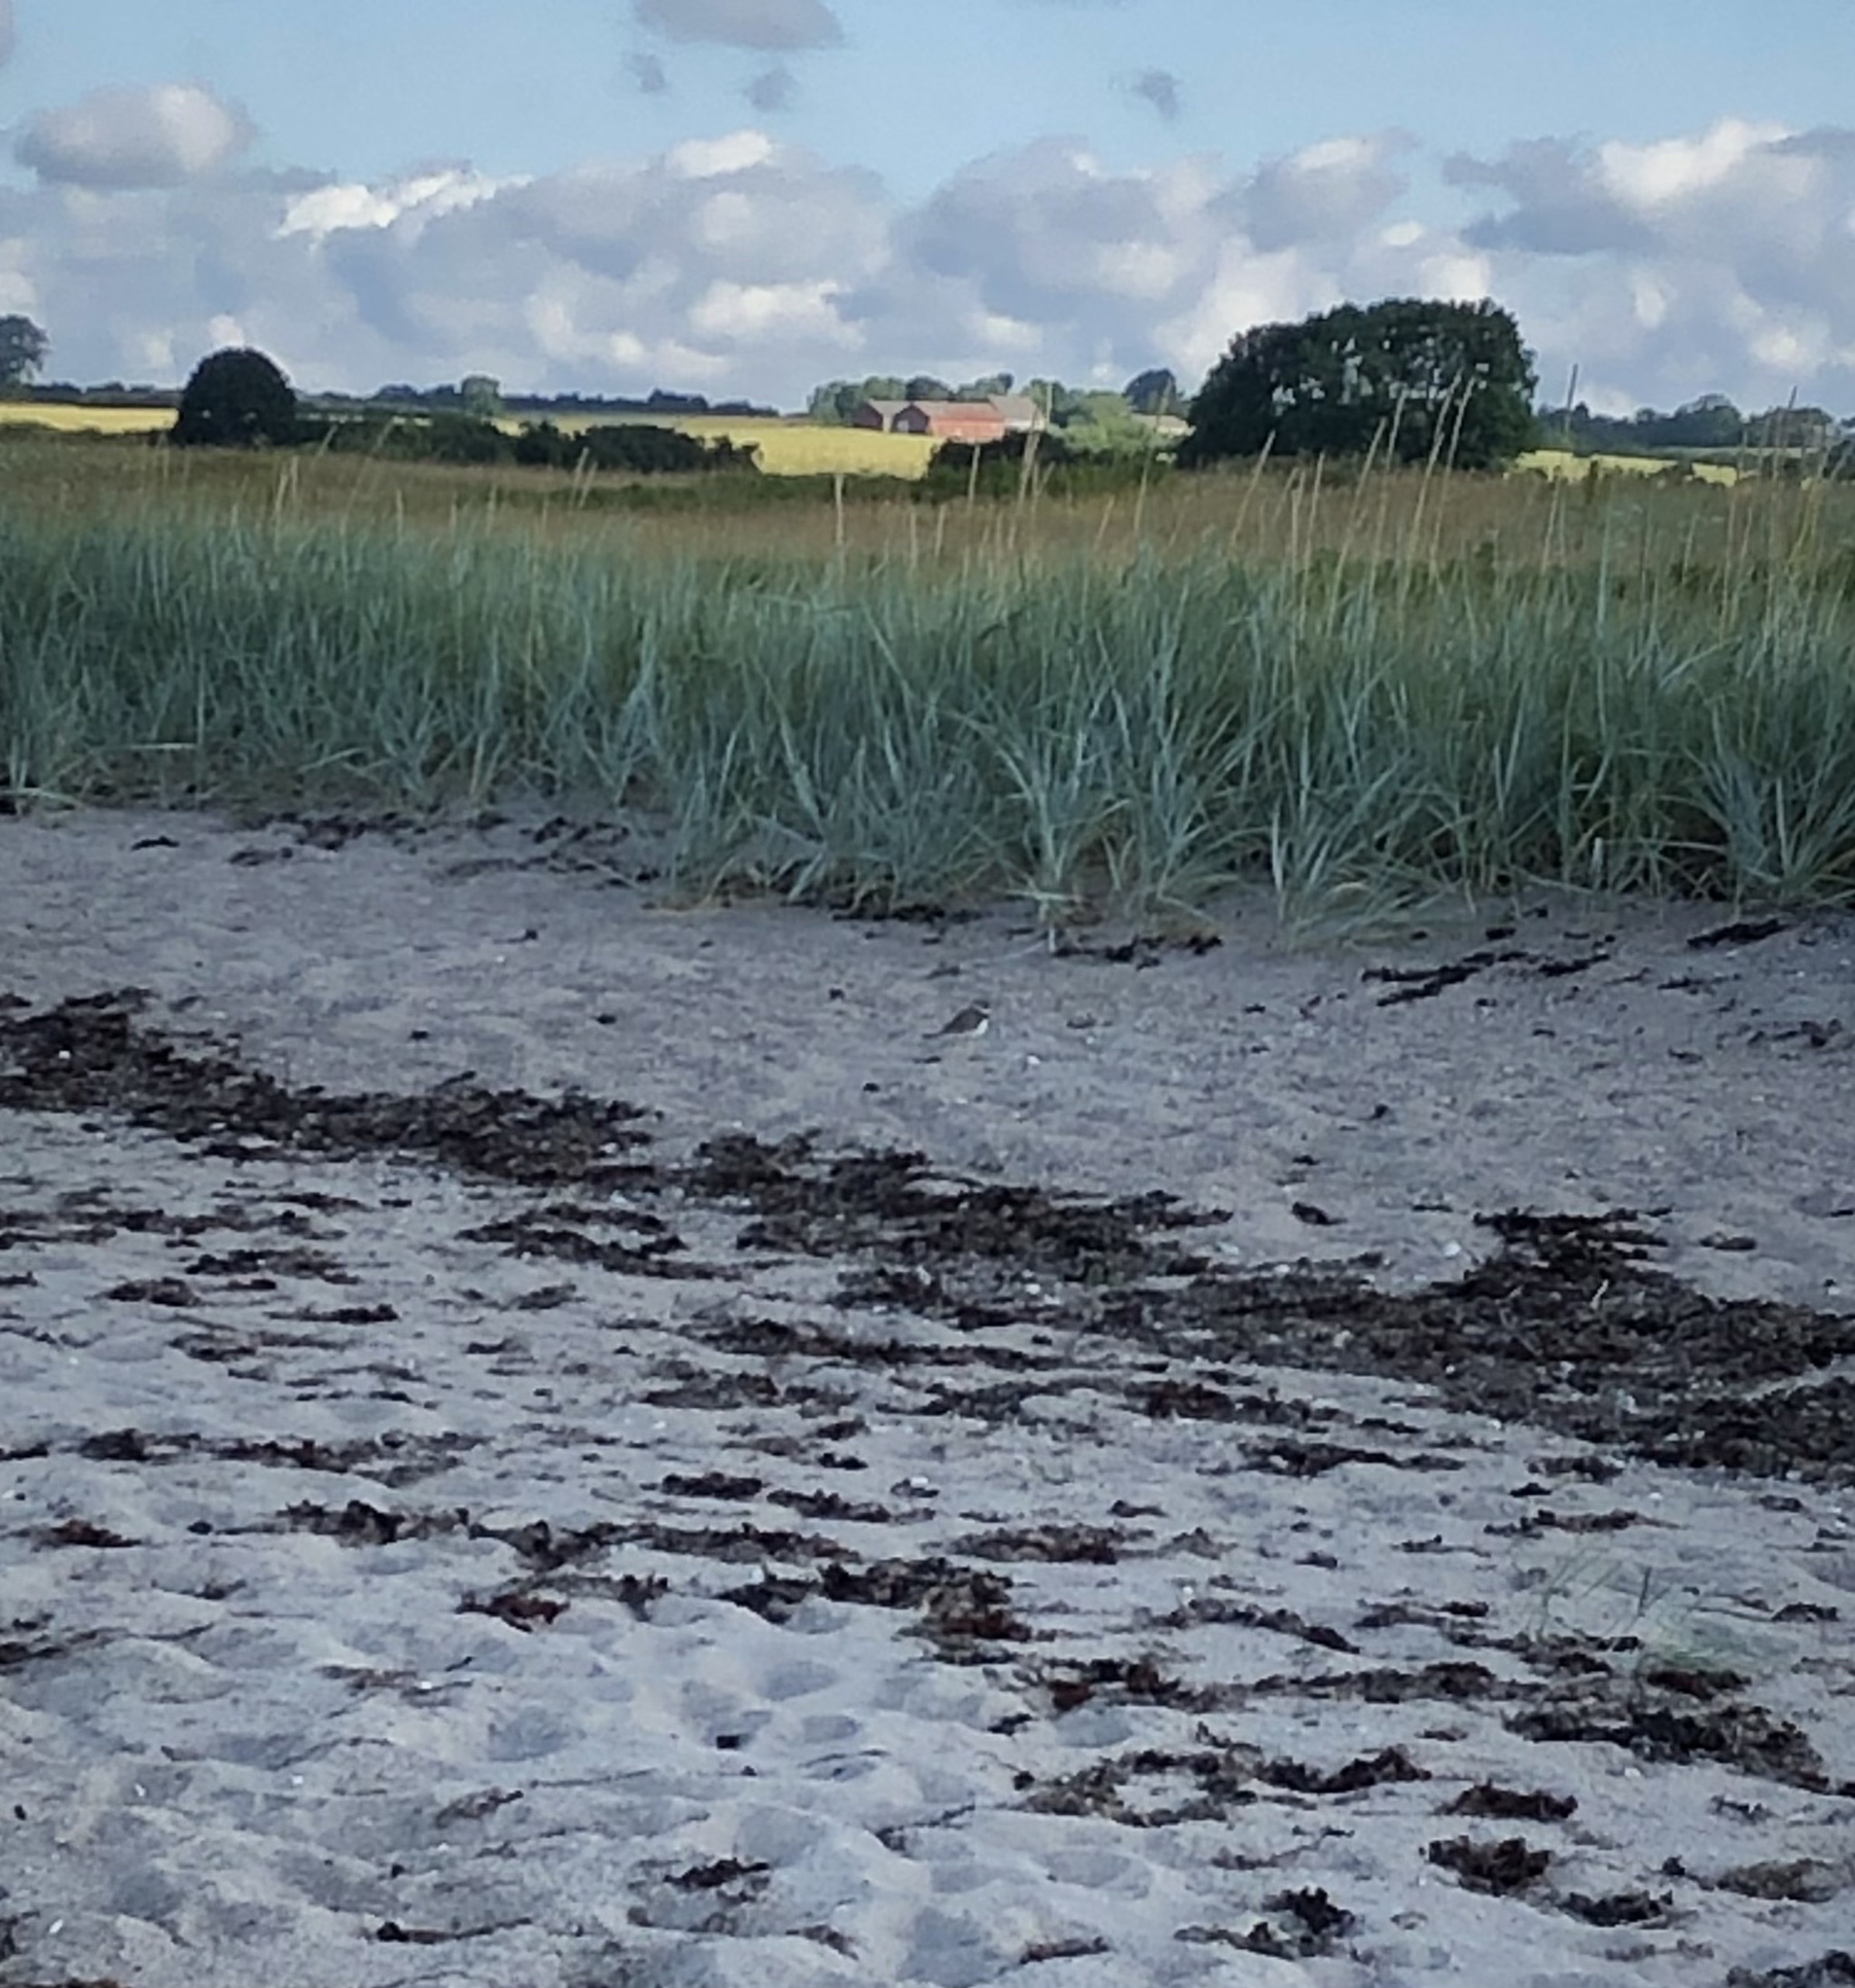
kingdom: Animalia
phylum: Chordata
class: Aves
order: Charadriiformes
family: Charadriidae
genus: Charadrius
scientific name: Charadrius hiaticula
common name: Stor præstekrave
